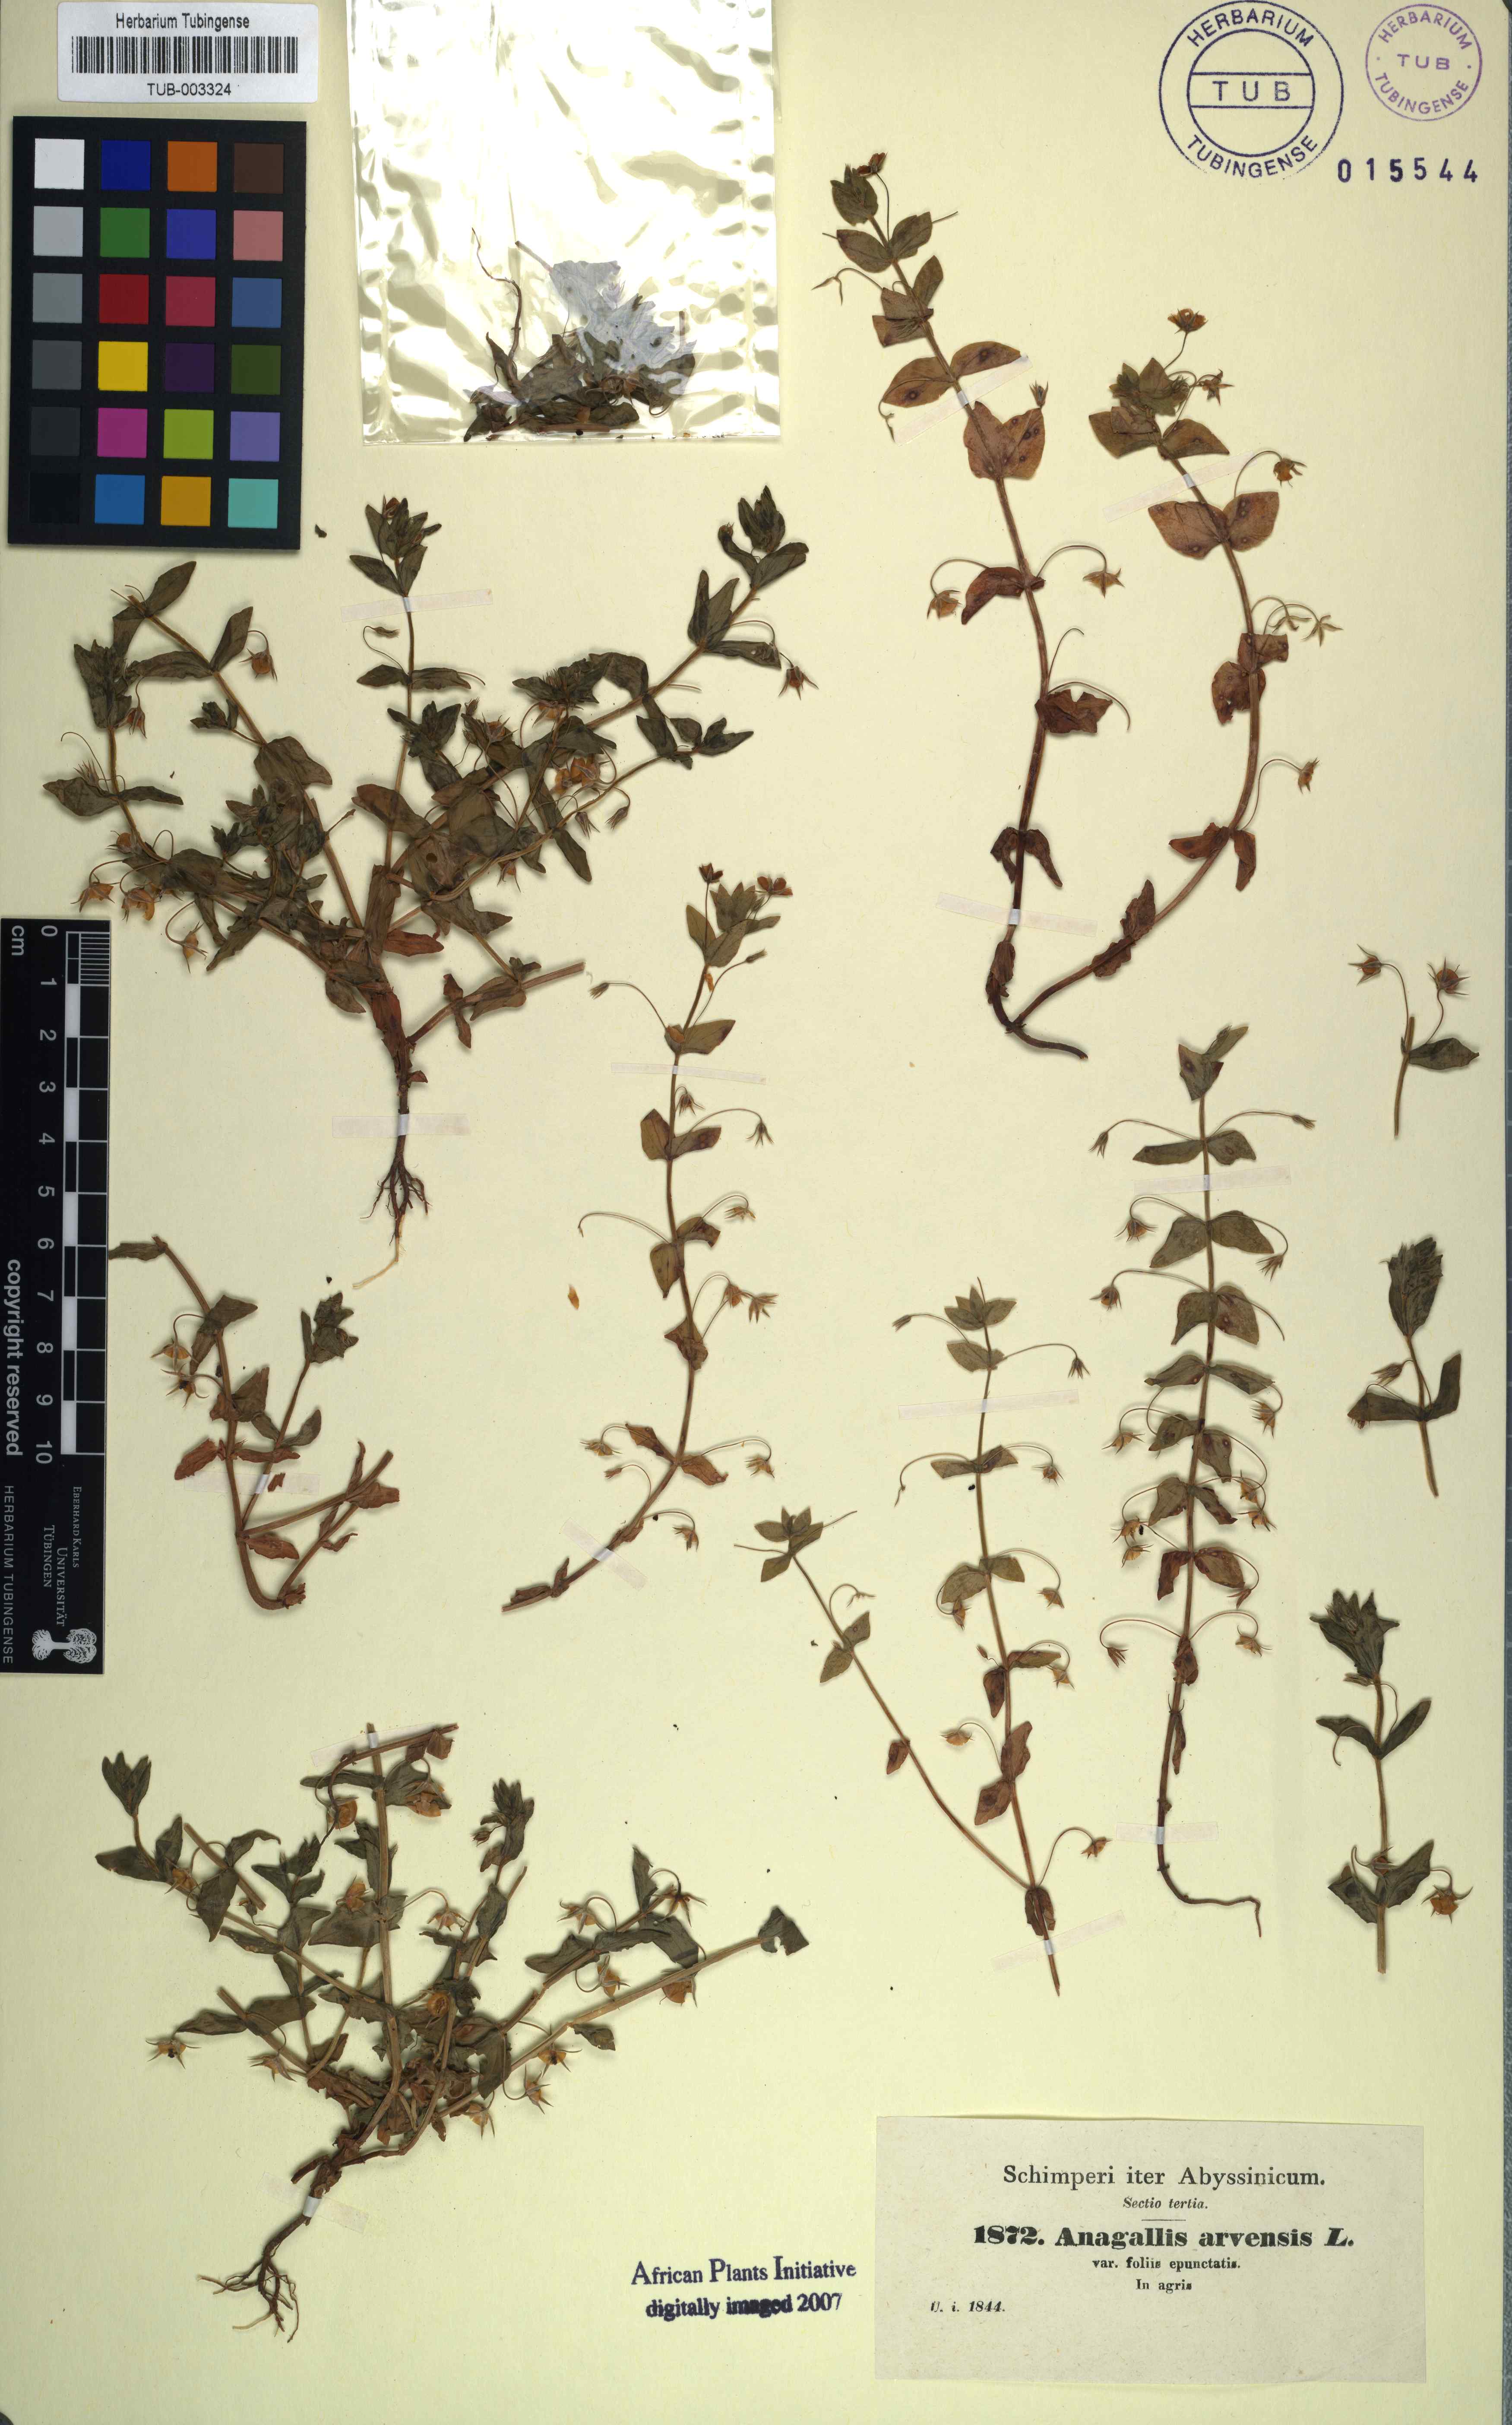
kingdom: Plantae
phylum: Tracheophyta
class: Magnoliopsida
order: Ericales
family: Primulaceae
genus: Lysimachia
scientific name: Lysimachia arvensis
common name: Scarlet pimpernel
